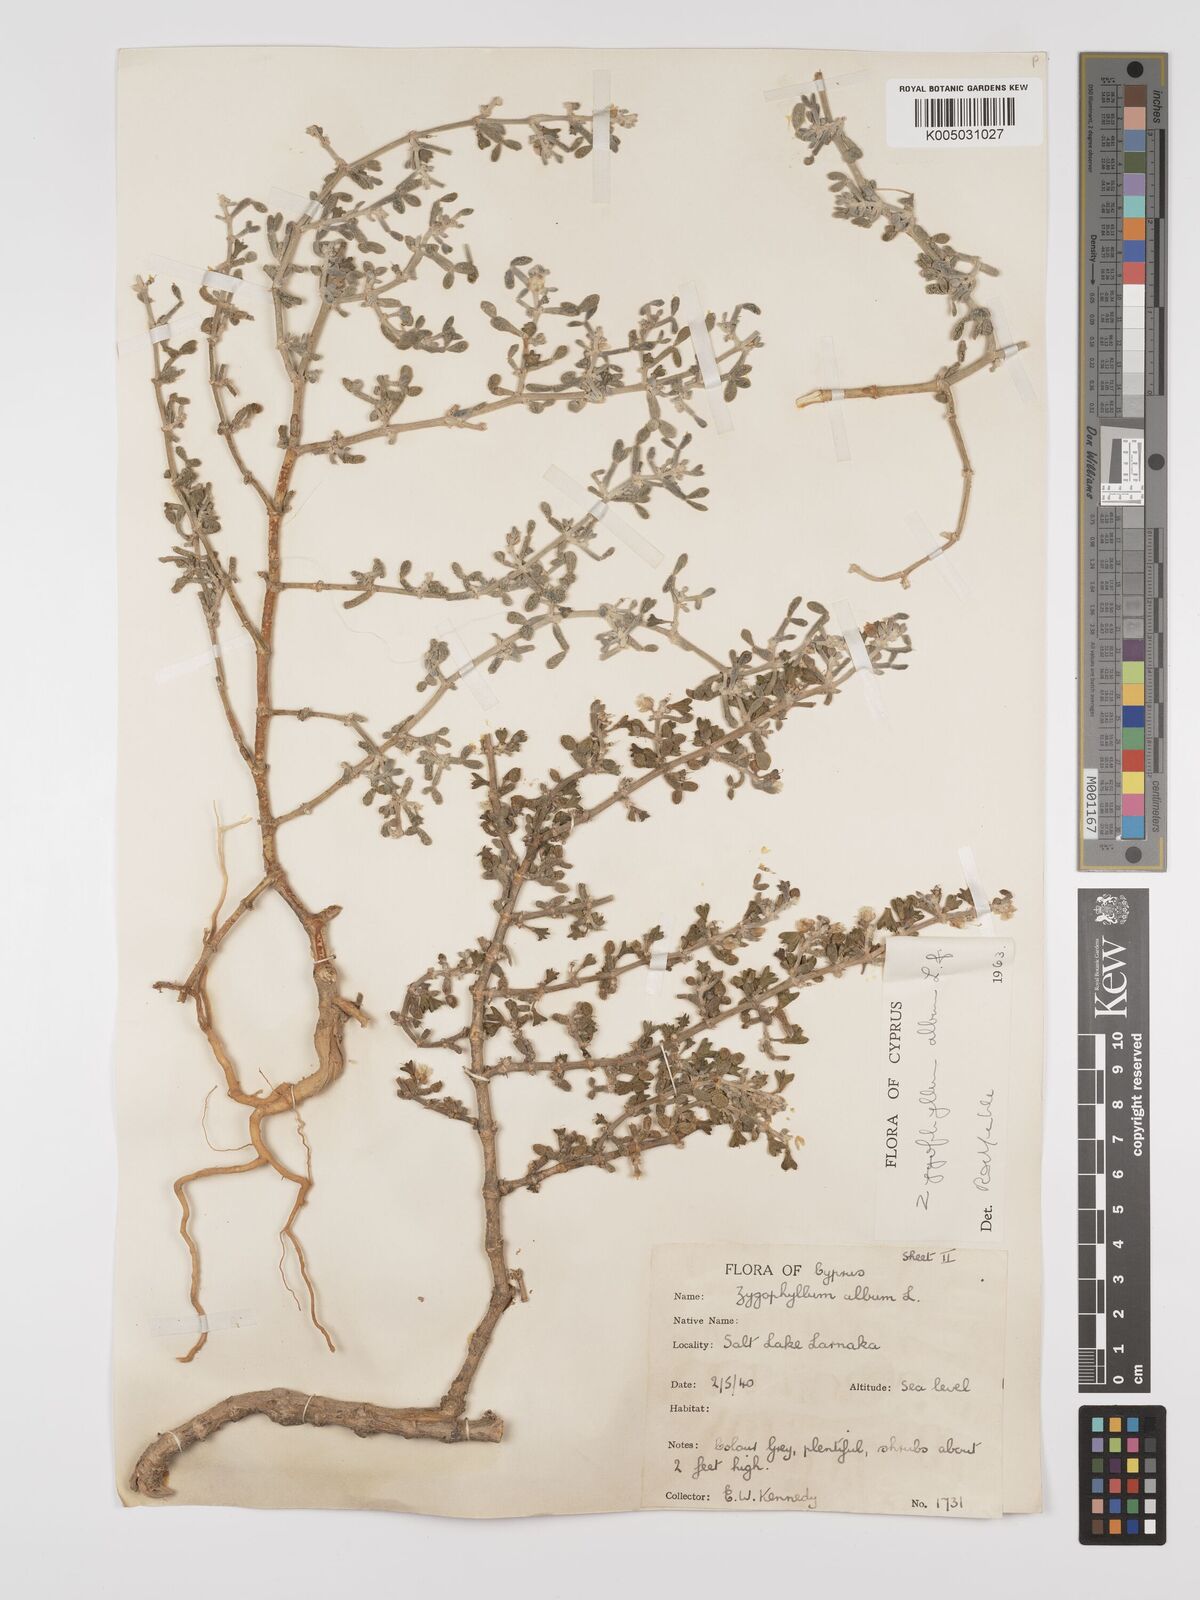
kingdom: Plantae
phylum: Tracheophyta
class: Magnoliopsida
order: Zygophyllales
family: Zygophyllaceae
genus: Zygophyllum
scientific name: Zygophyllum
